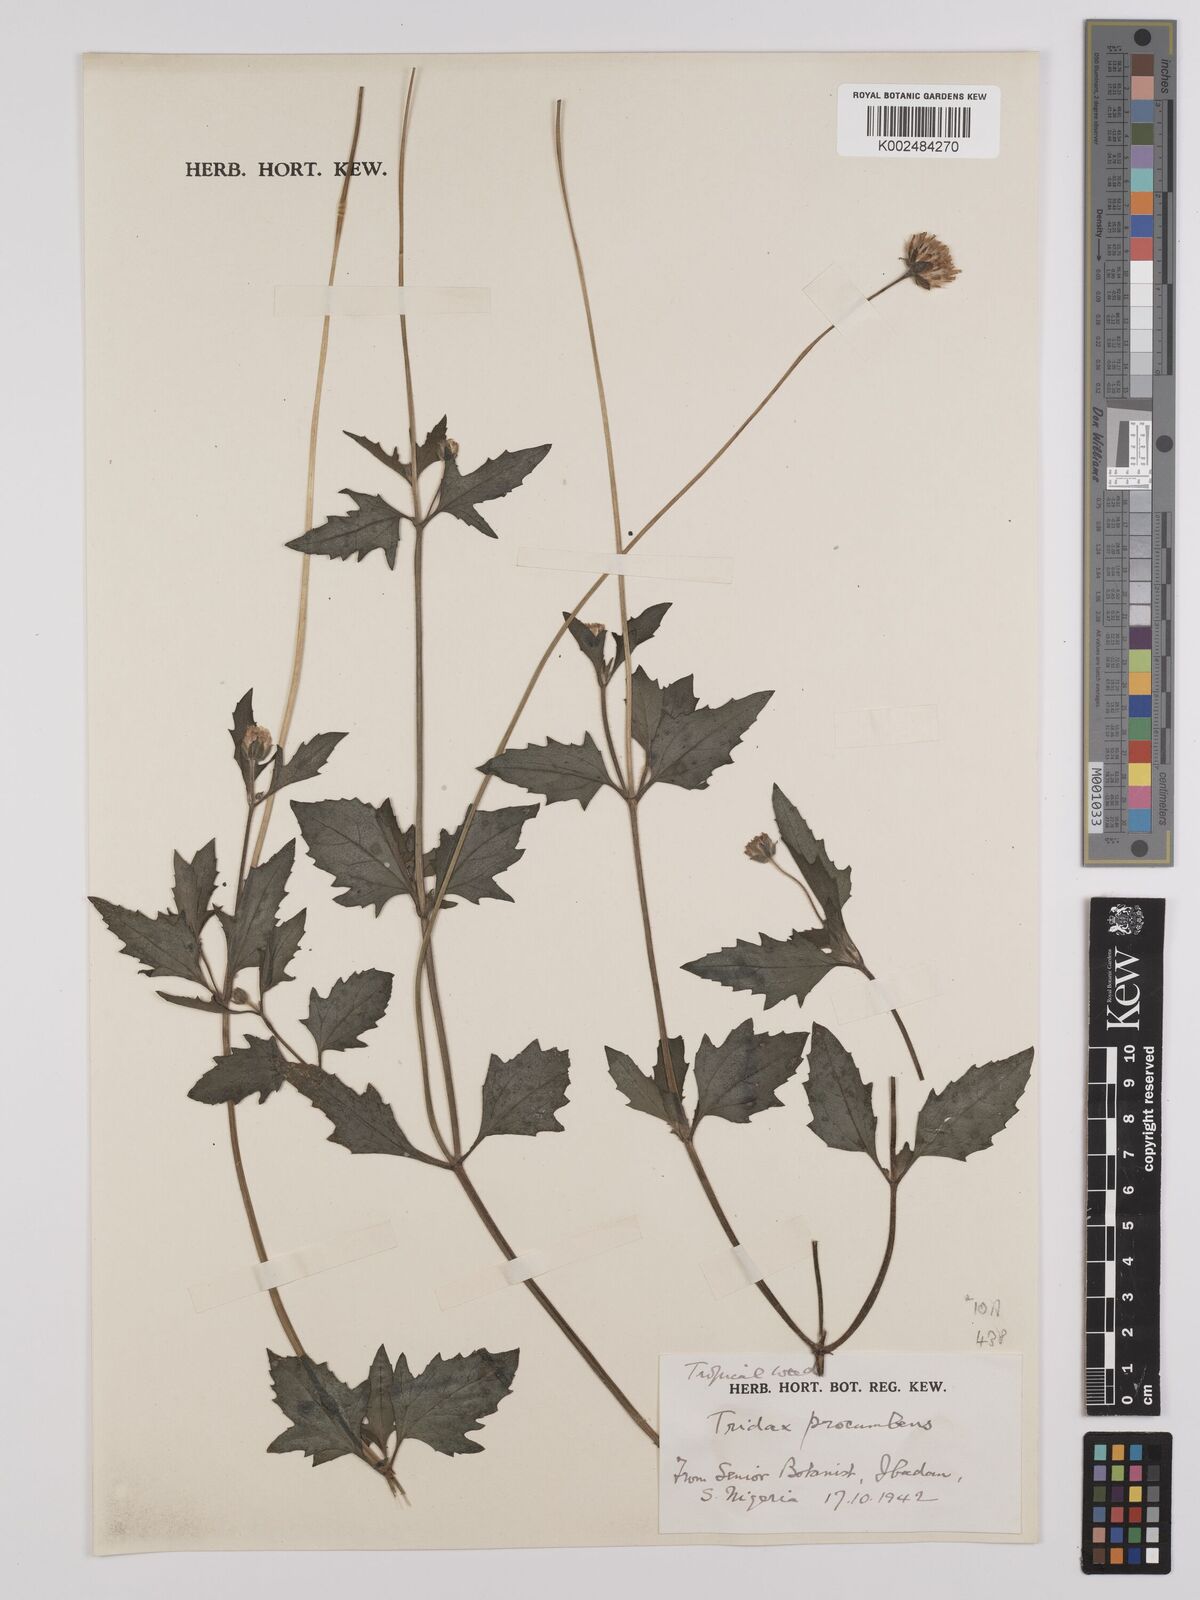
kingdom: Plantae
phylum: Tracheophyta
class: Magnoliopsida
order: Asterales
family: Asteraceae
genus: Tridax
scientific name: Tridax procumbens
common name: Coatbuttons
